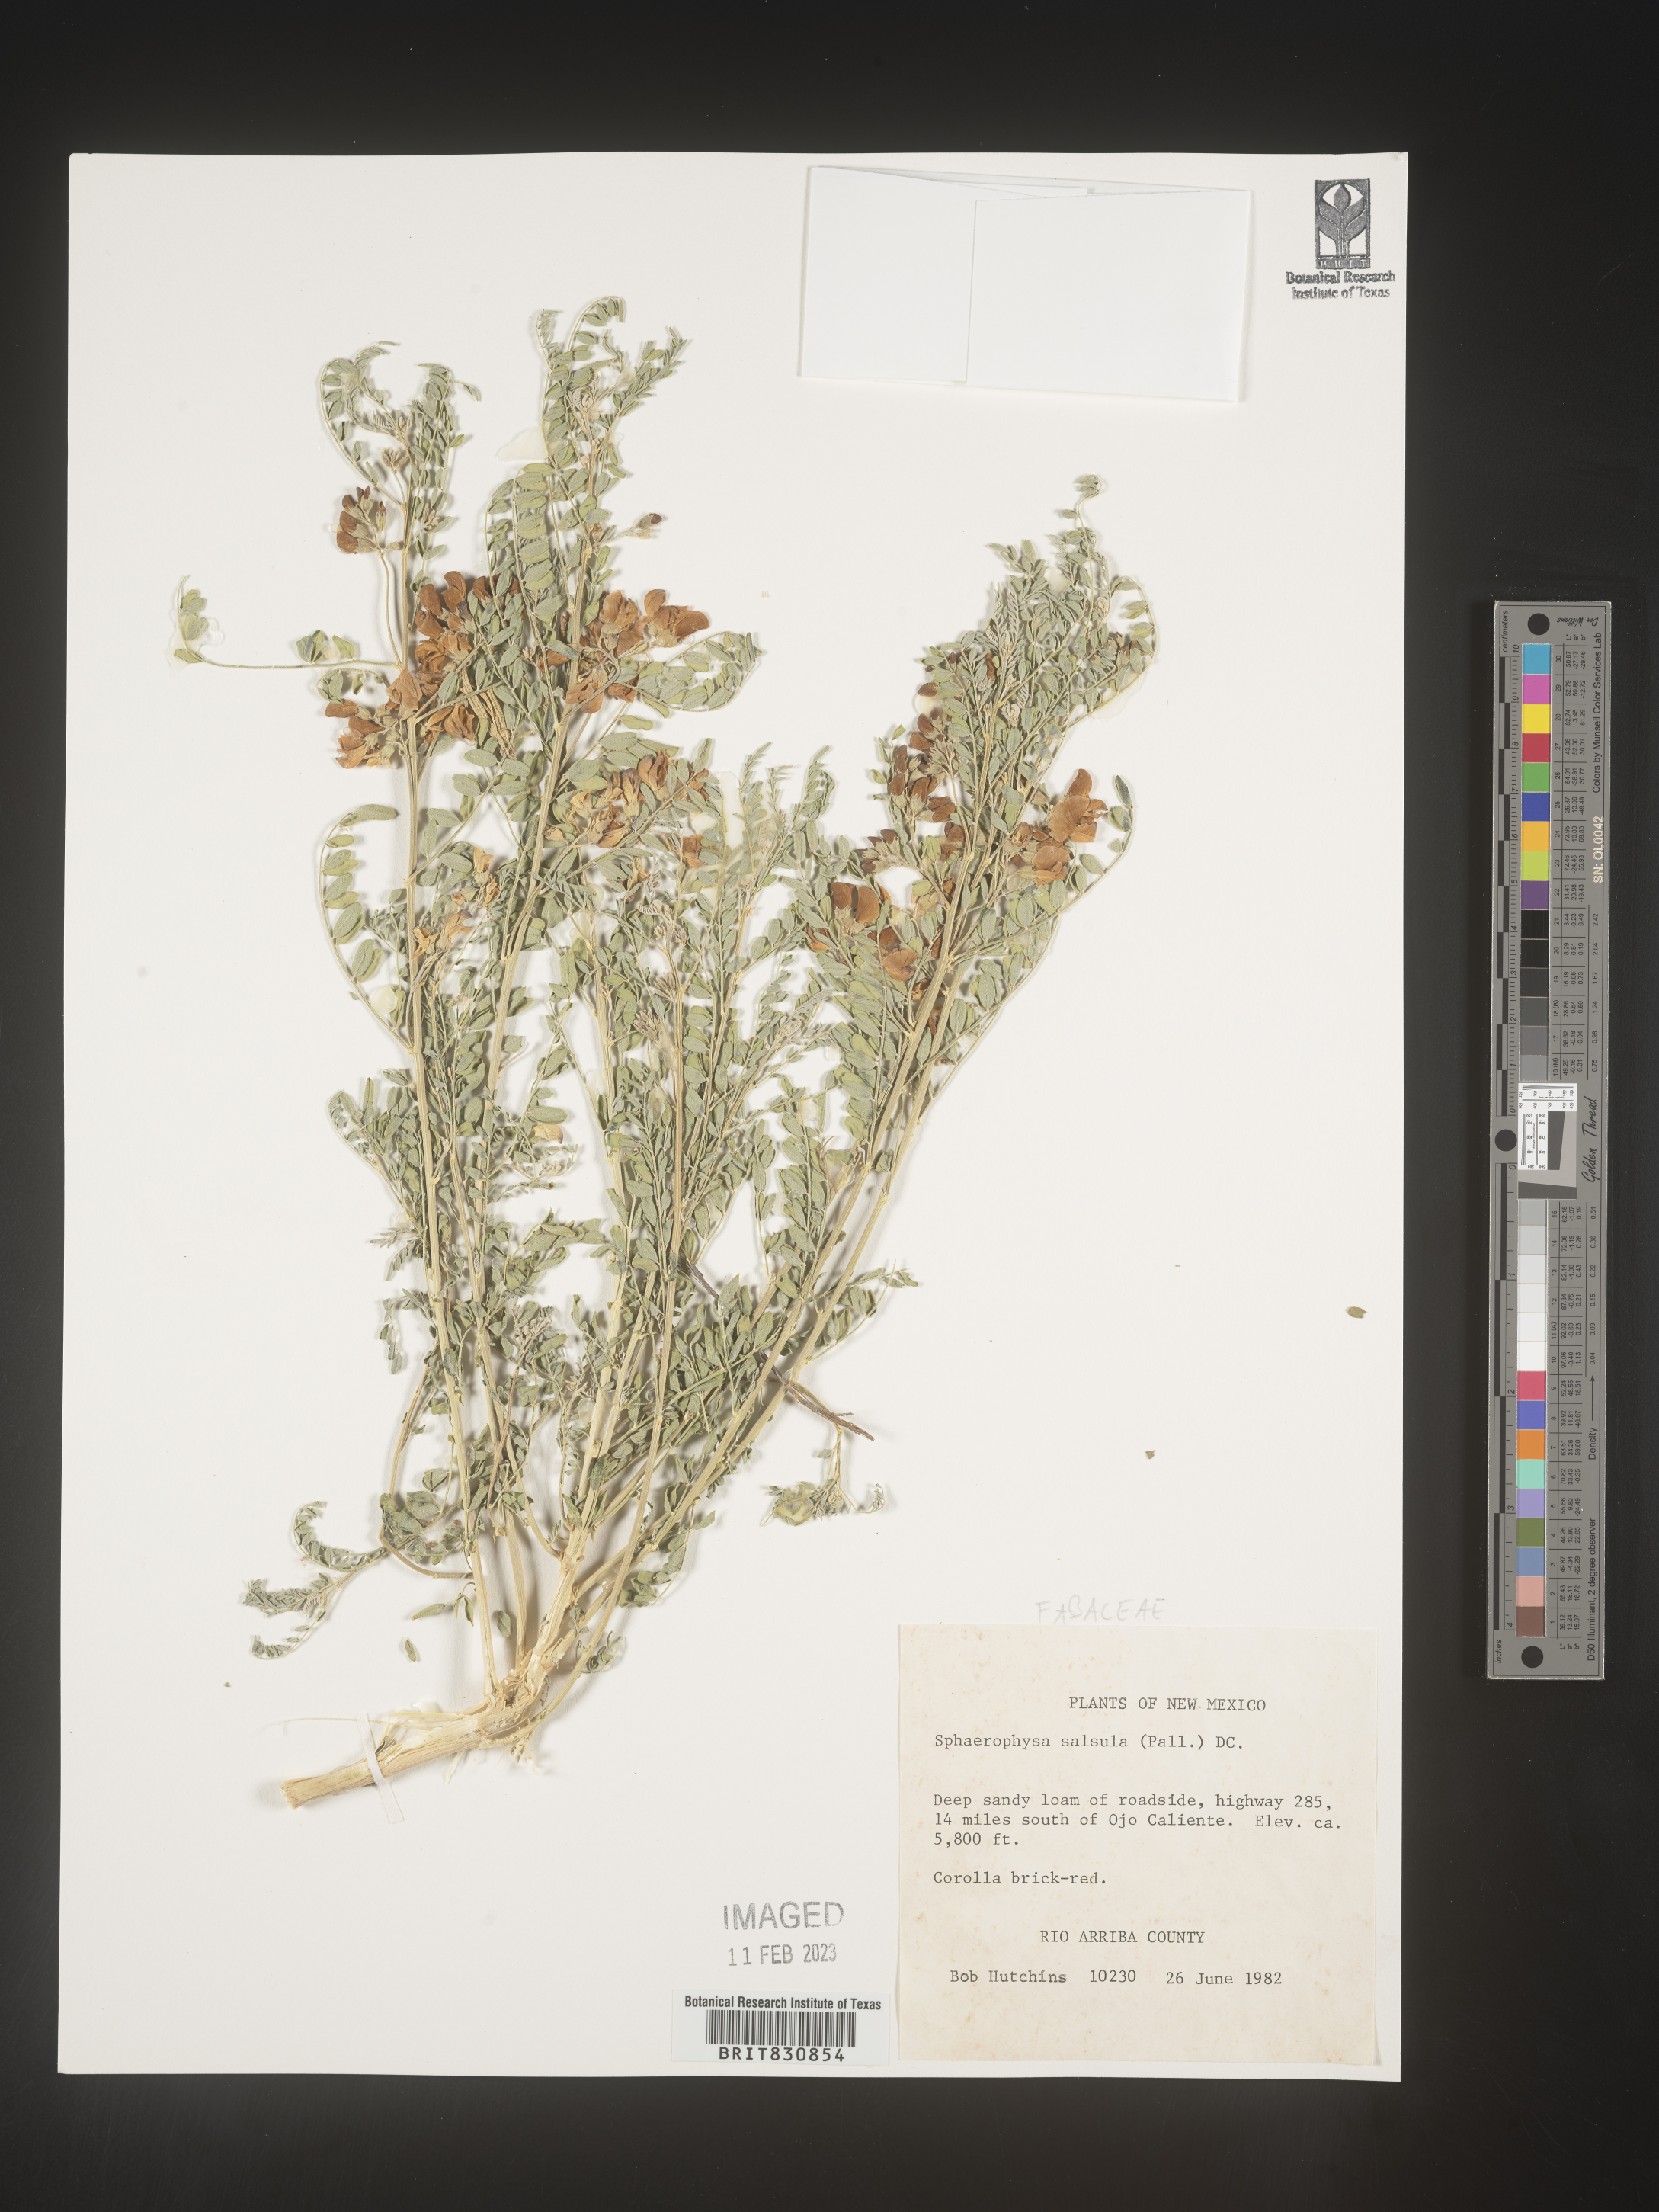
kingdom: Plantae
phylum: Tracheophyta
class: Magnoliopsida
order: Fabales
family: Fabaceae
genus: Sphaerophysa
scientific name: Sphaerophysa
